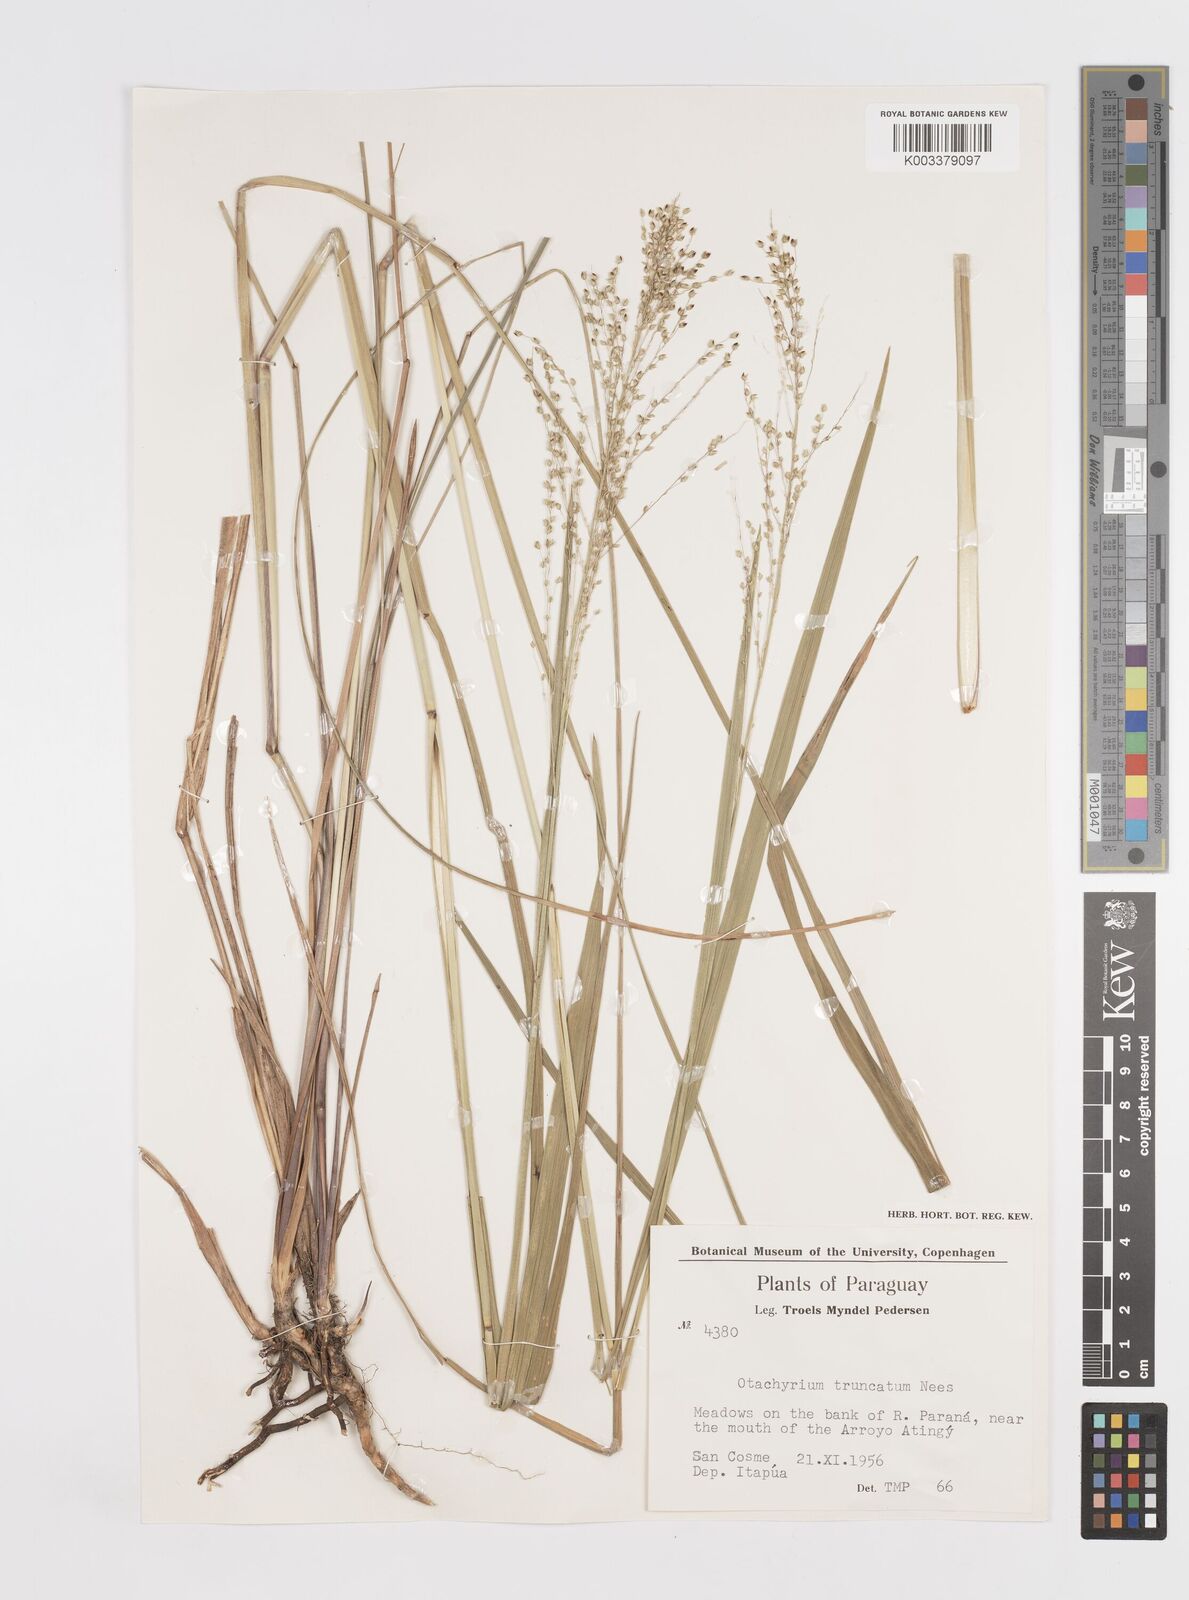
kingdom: Plantae
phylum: Tracheophyta
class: Liliopsida
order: Poales
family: Poaceae
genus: Otachyrium
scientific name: Otachyrium versicolor
